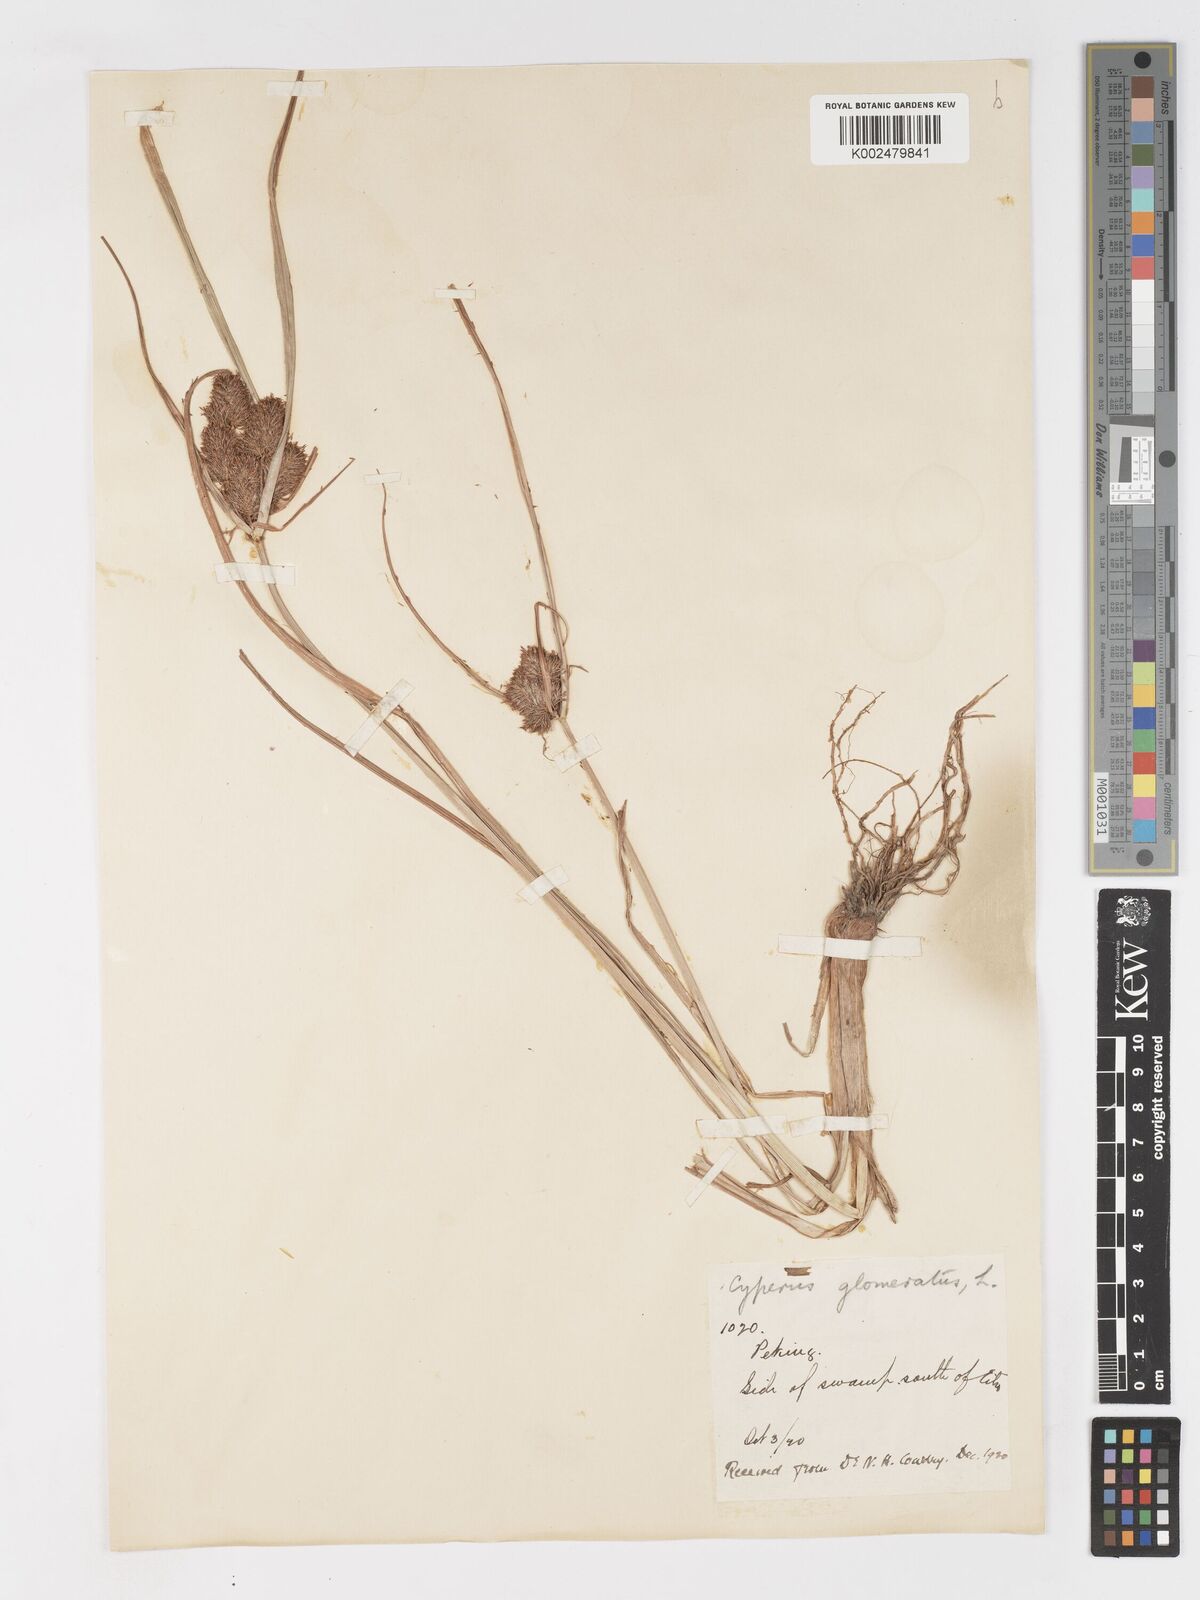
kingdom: Plantae
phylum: Tracheophyta
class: Liliopsida
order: Poales
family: Cyperaceae
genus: Cyperus
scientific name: Cyperus glomeratus
